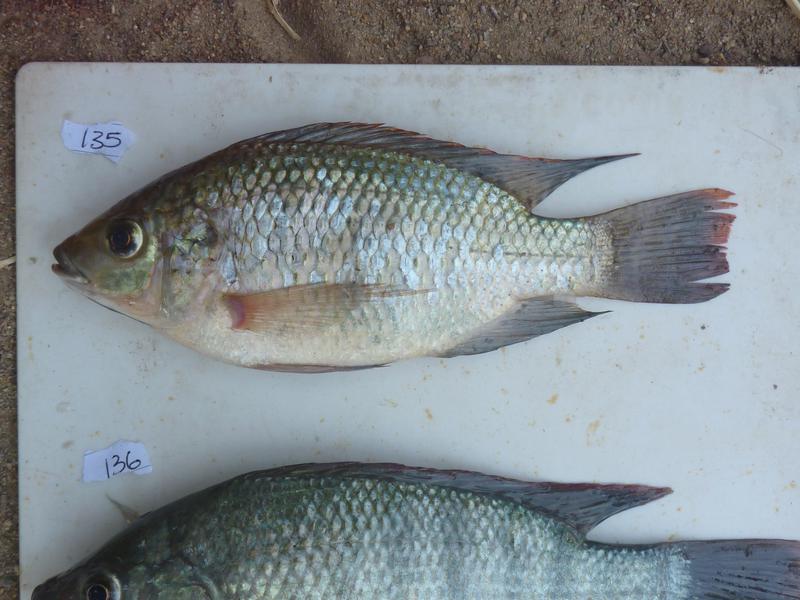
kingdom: Animalia
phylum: Chordata
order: Perciformes
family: Cichlidae
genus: Oreochromis
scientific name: Oreochromis
